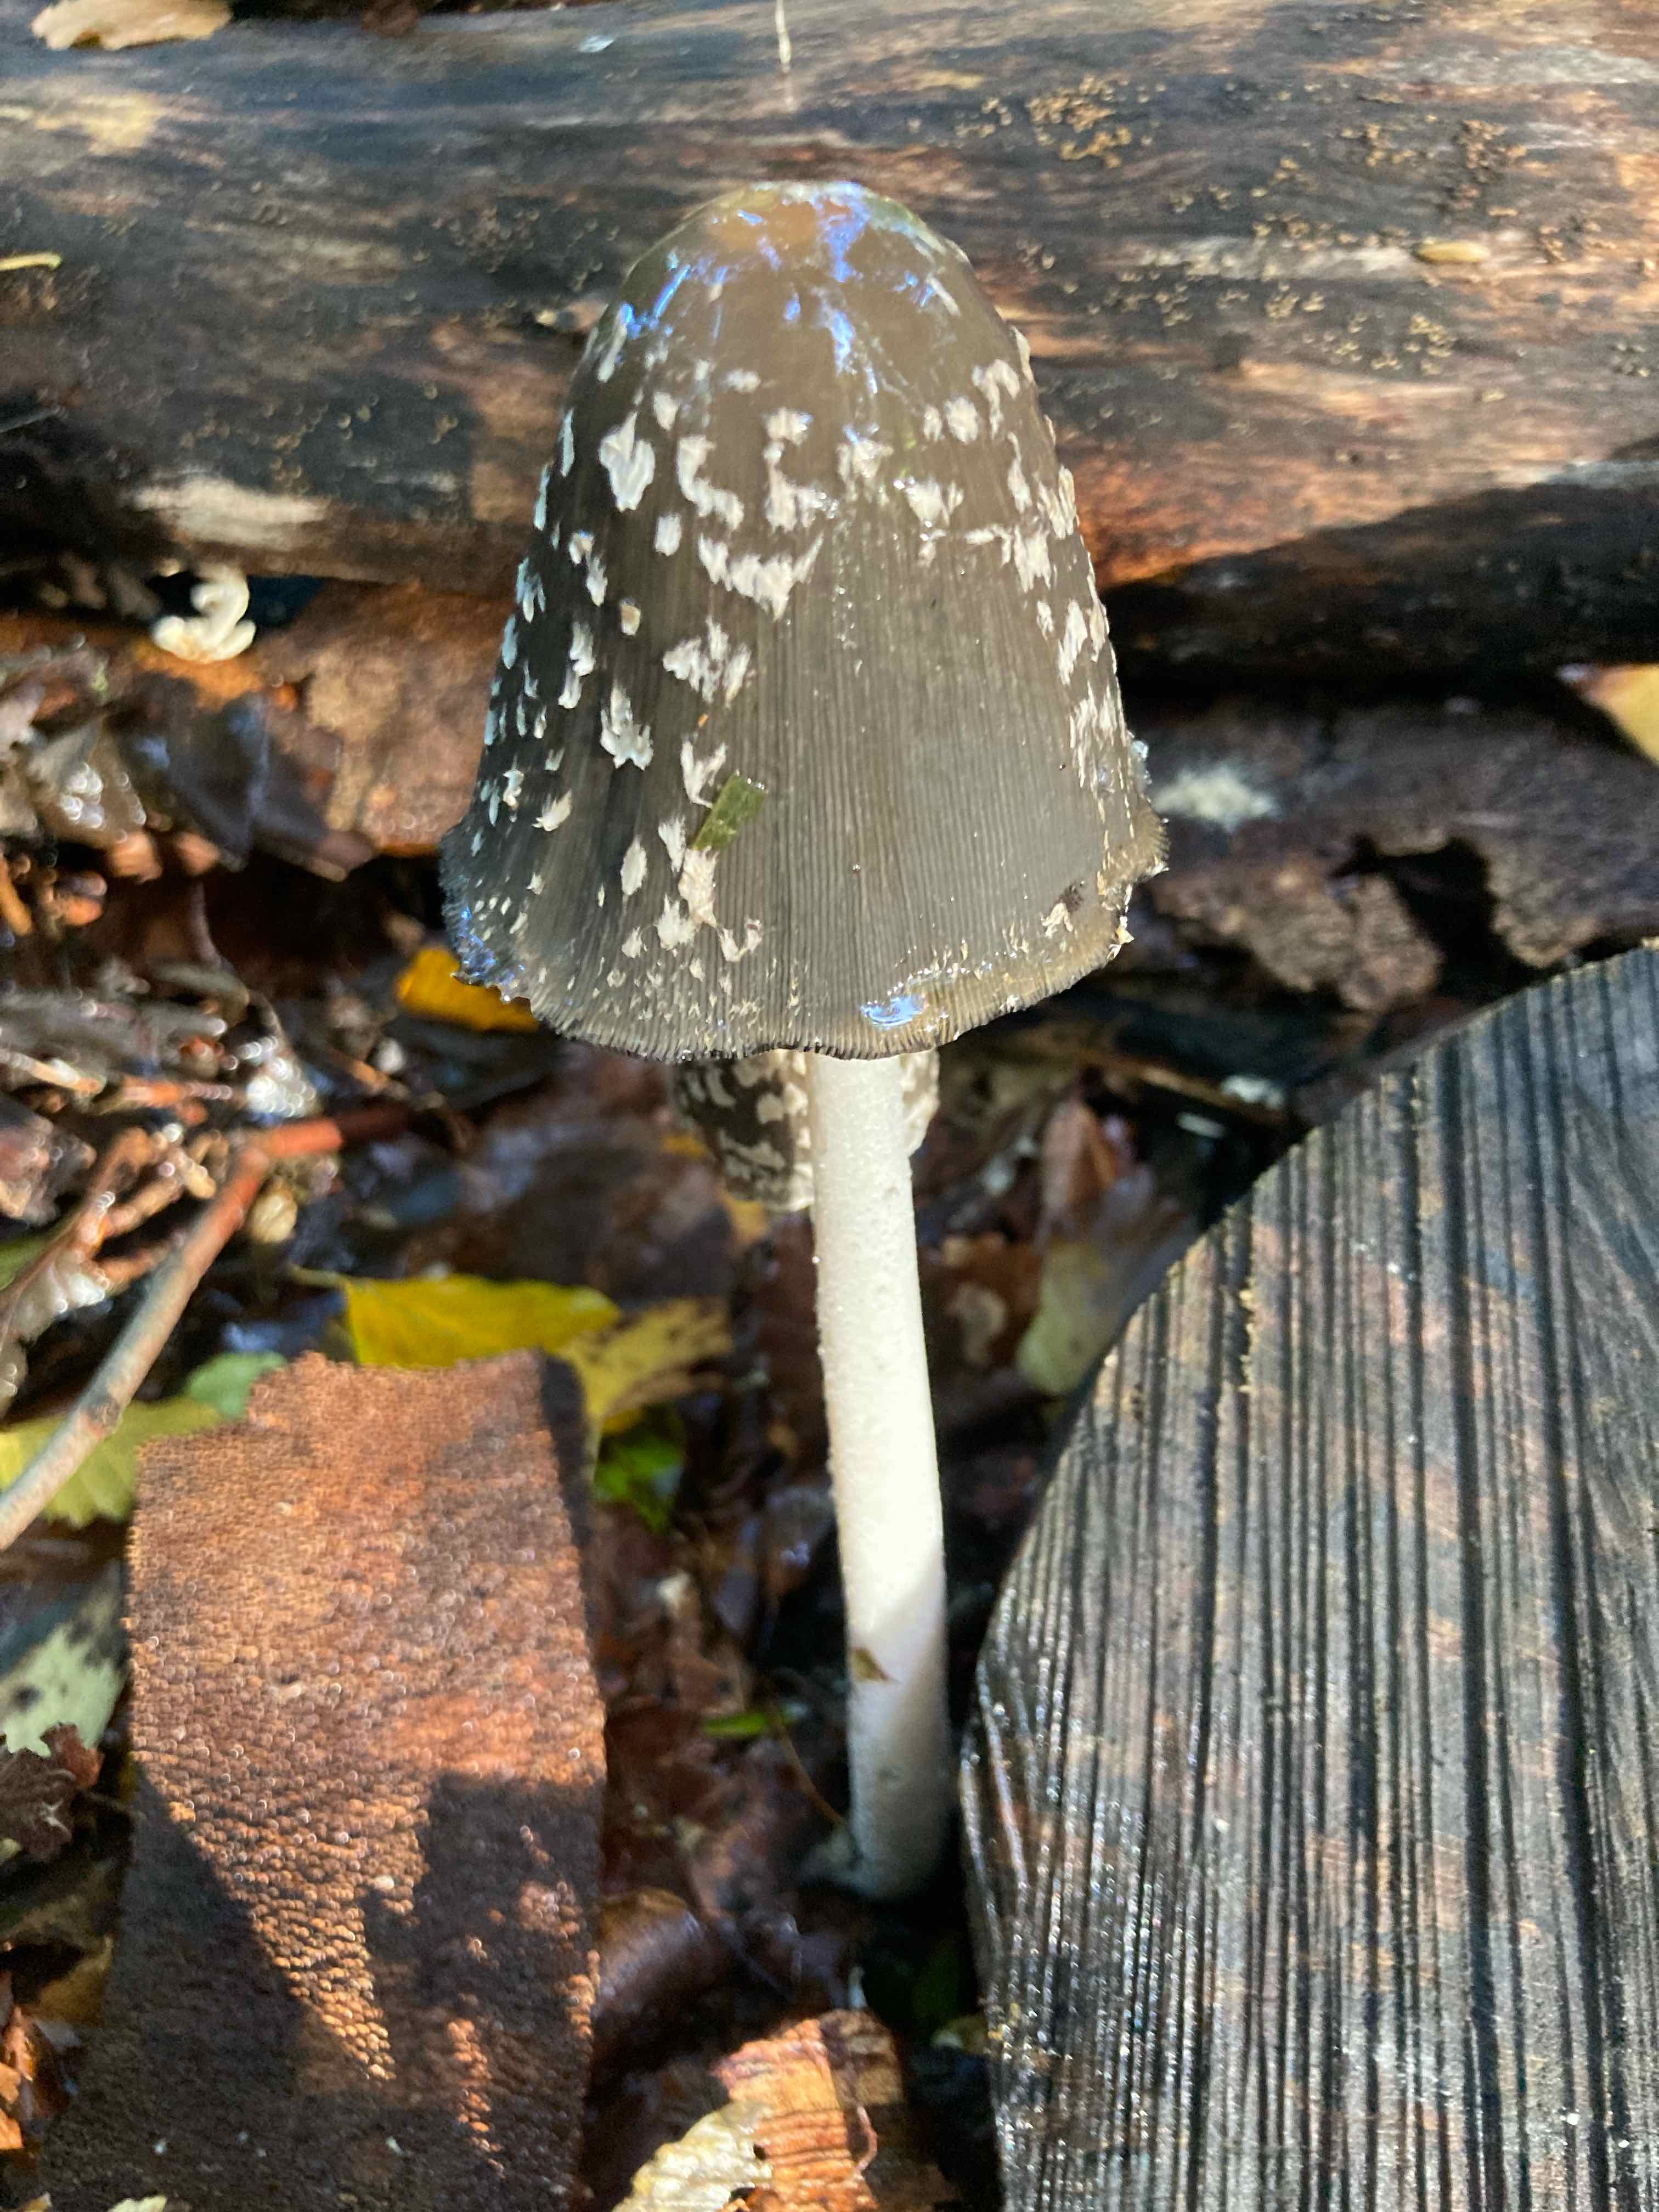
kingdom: Fungi
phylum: Basidiomycota
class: Agaricomycetes
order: Agaricales
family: Psathyrellaceae
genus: Coprinopsis
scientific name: Coprinopsis picacea
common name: skade-blækhat
